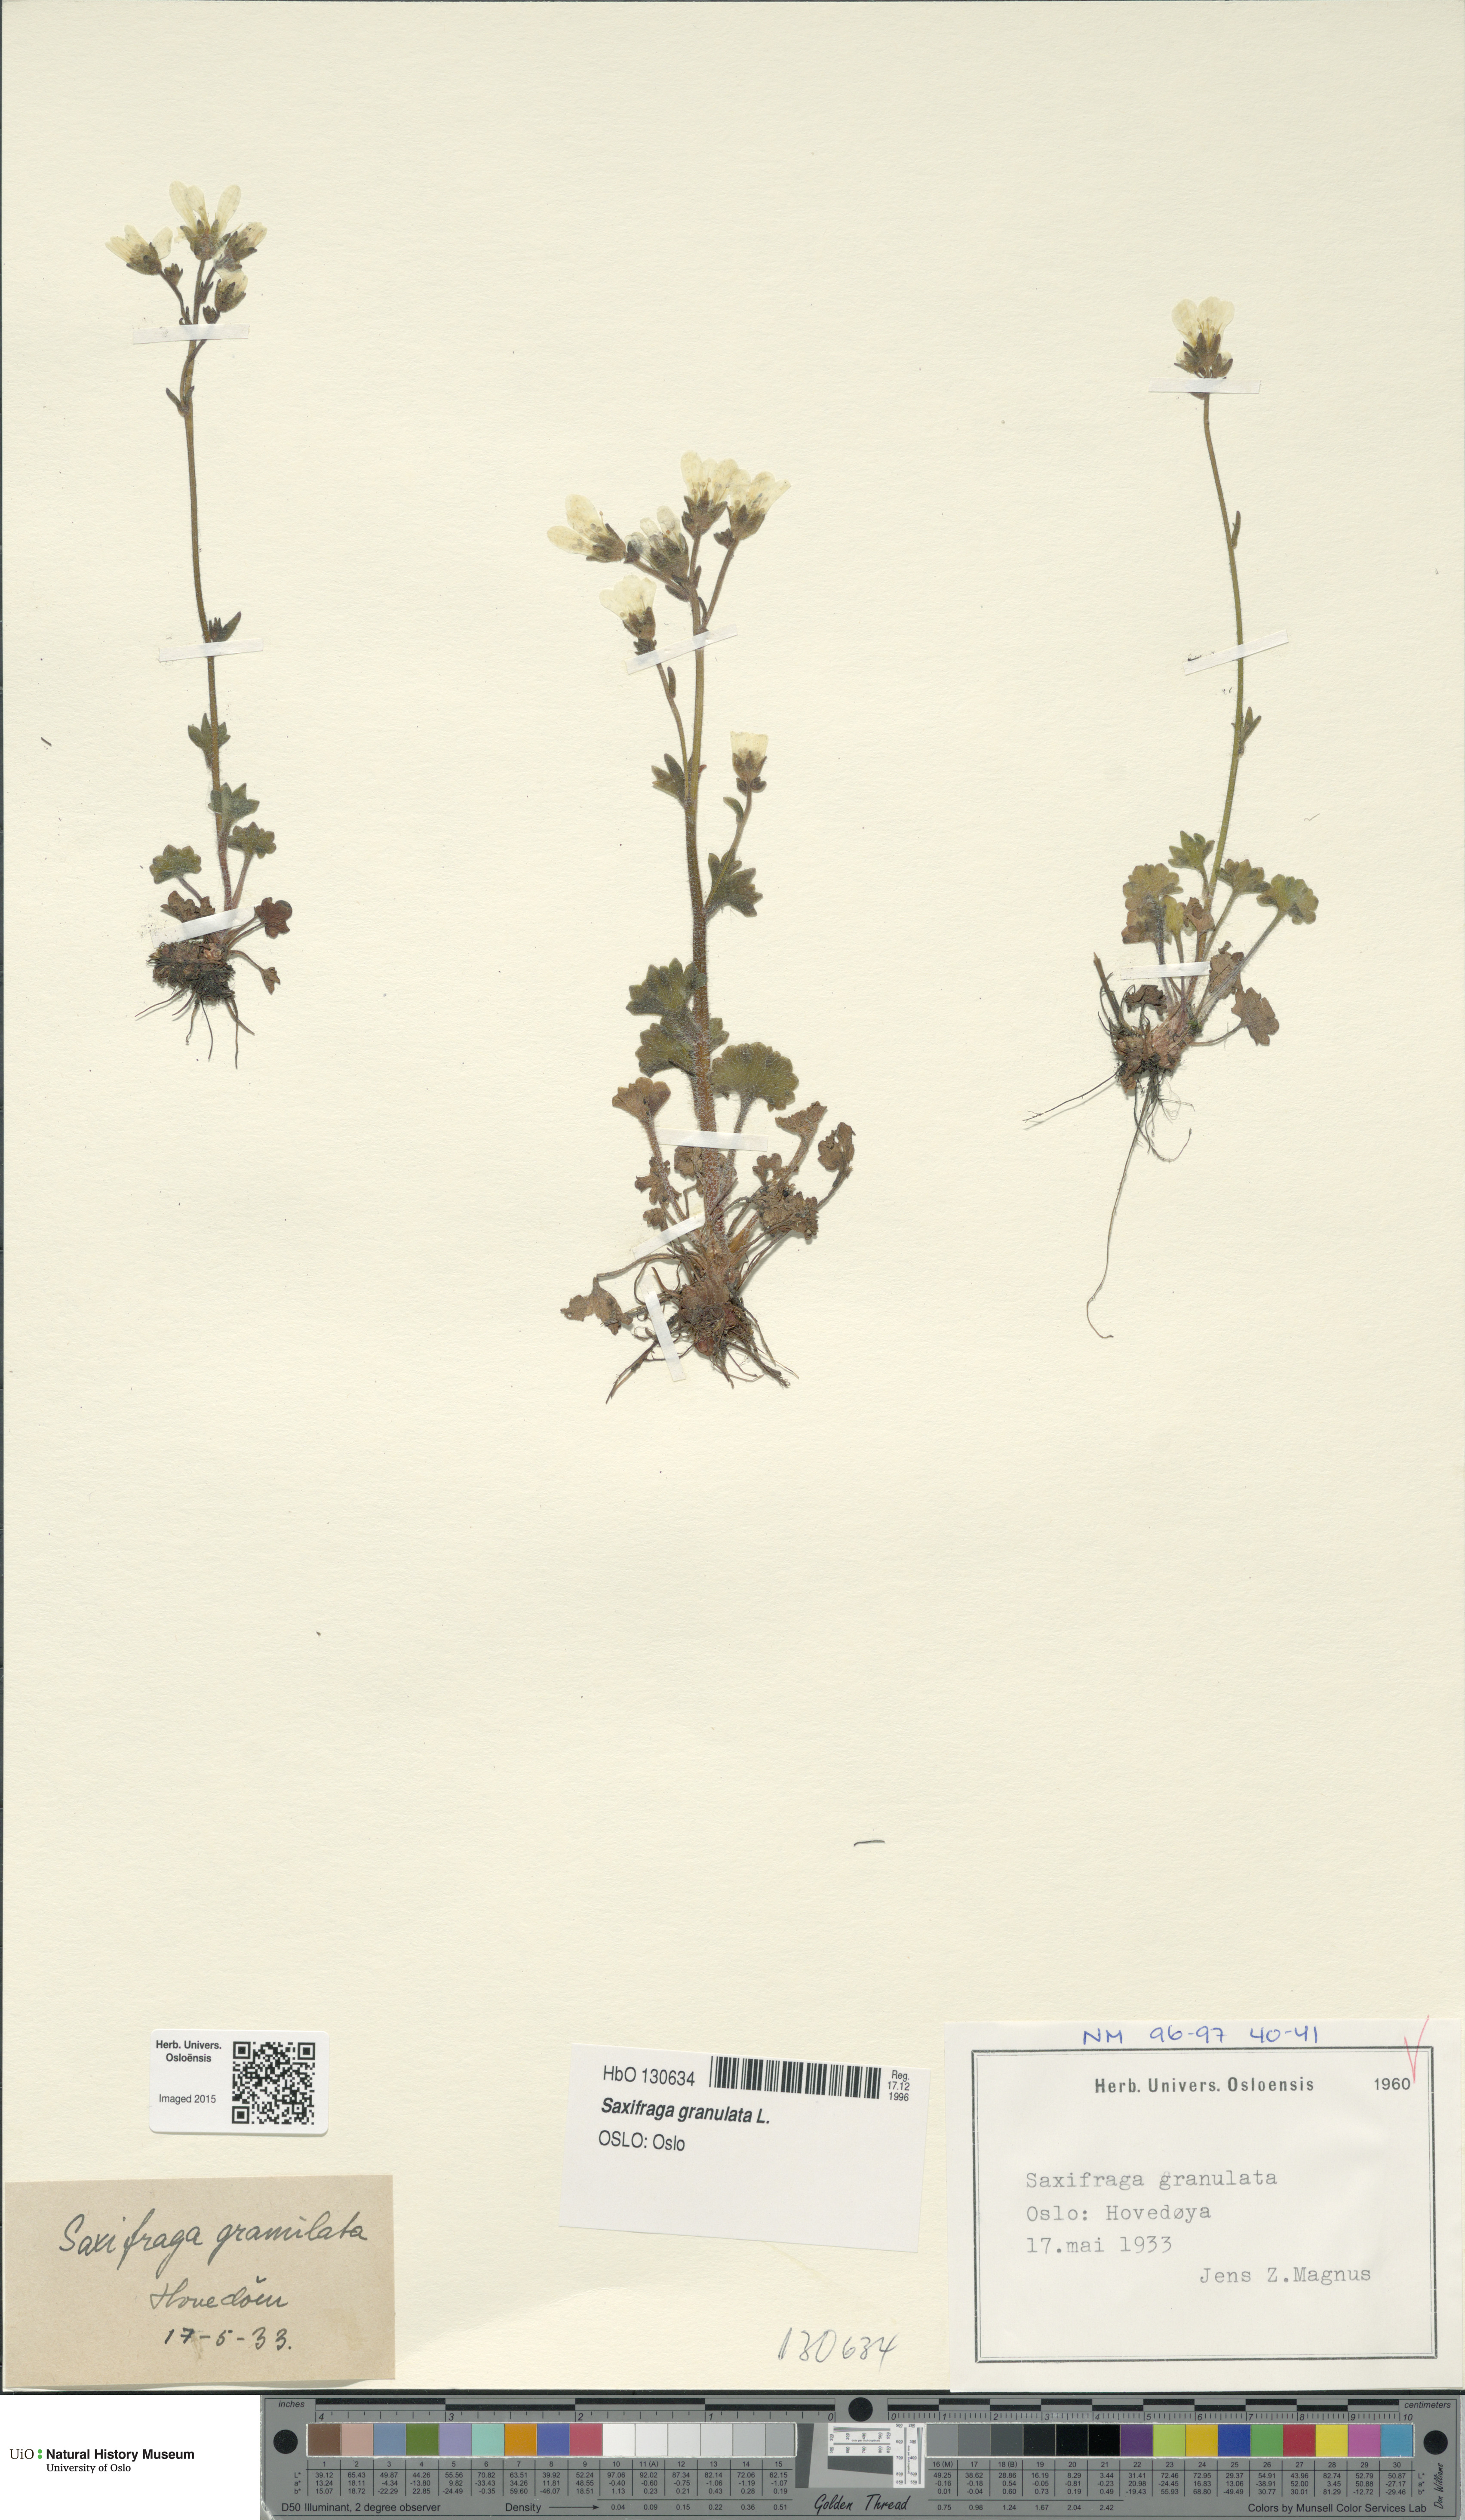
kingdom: Plantae
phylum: Tracheophyta
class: Magnoliopsida
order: Saxifragales
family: Saxifragaceae
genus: Saxifraga
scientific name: Saxifraga granulata
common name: Meadow saxifrage
